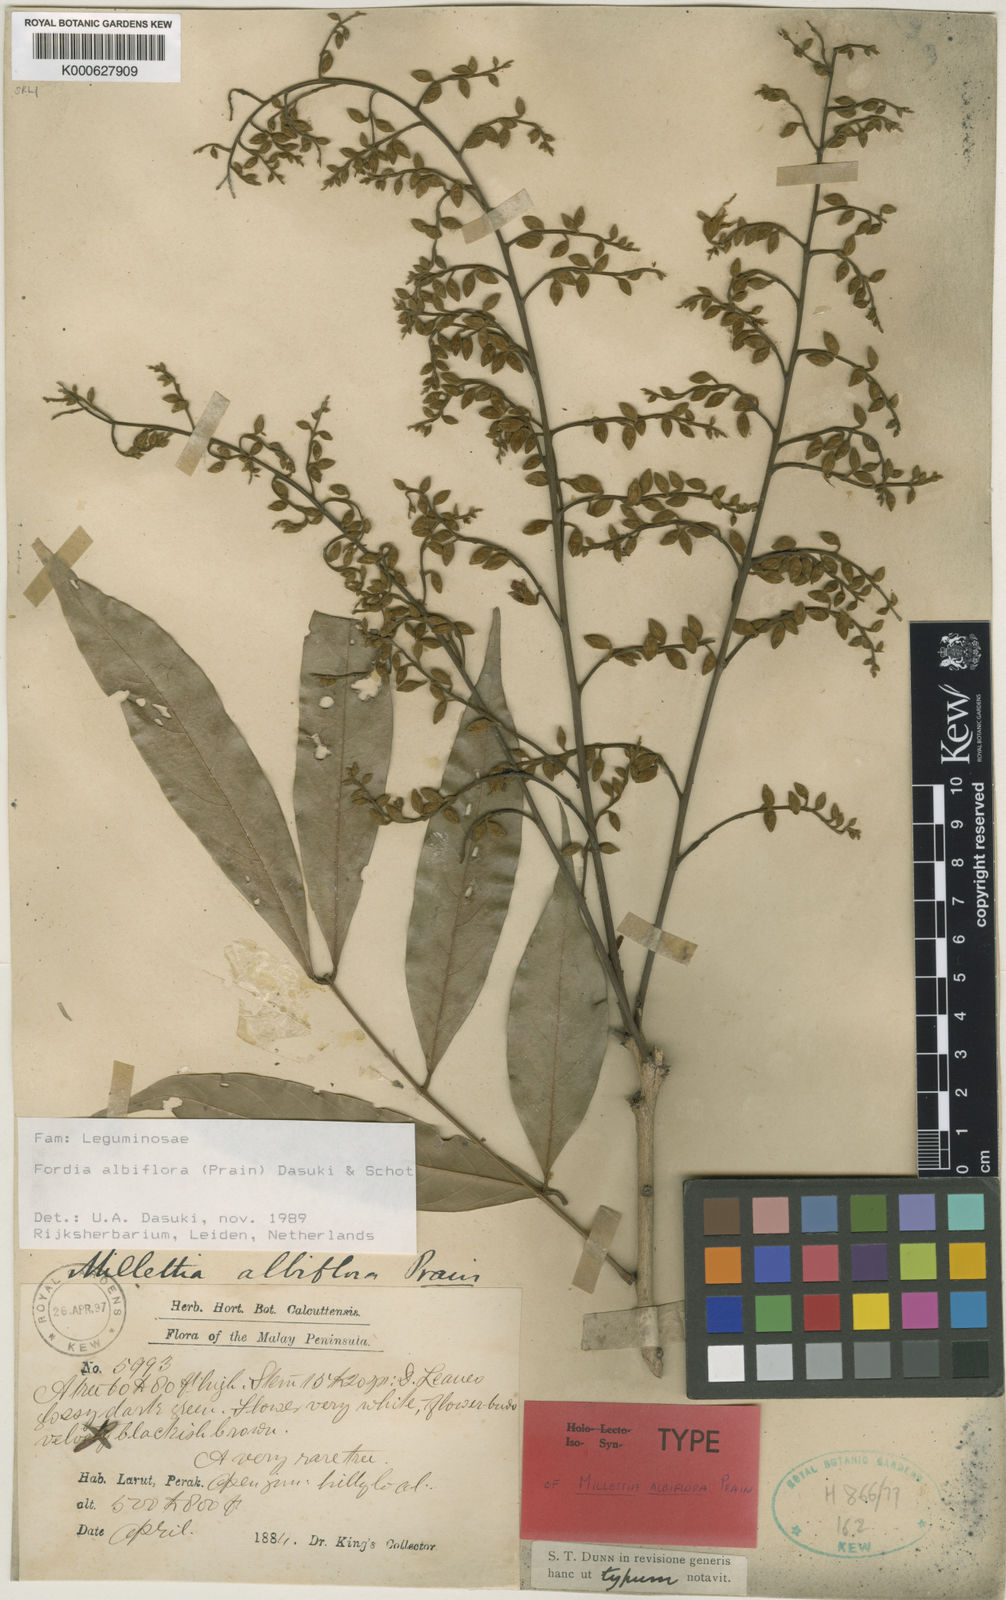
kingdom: Plantae
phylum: Tracheophyta
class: Magnoliopsida
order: Fabales
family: Fabaceae
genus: Imbralyx
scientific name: Imbralyx albiflorus
